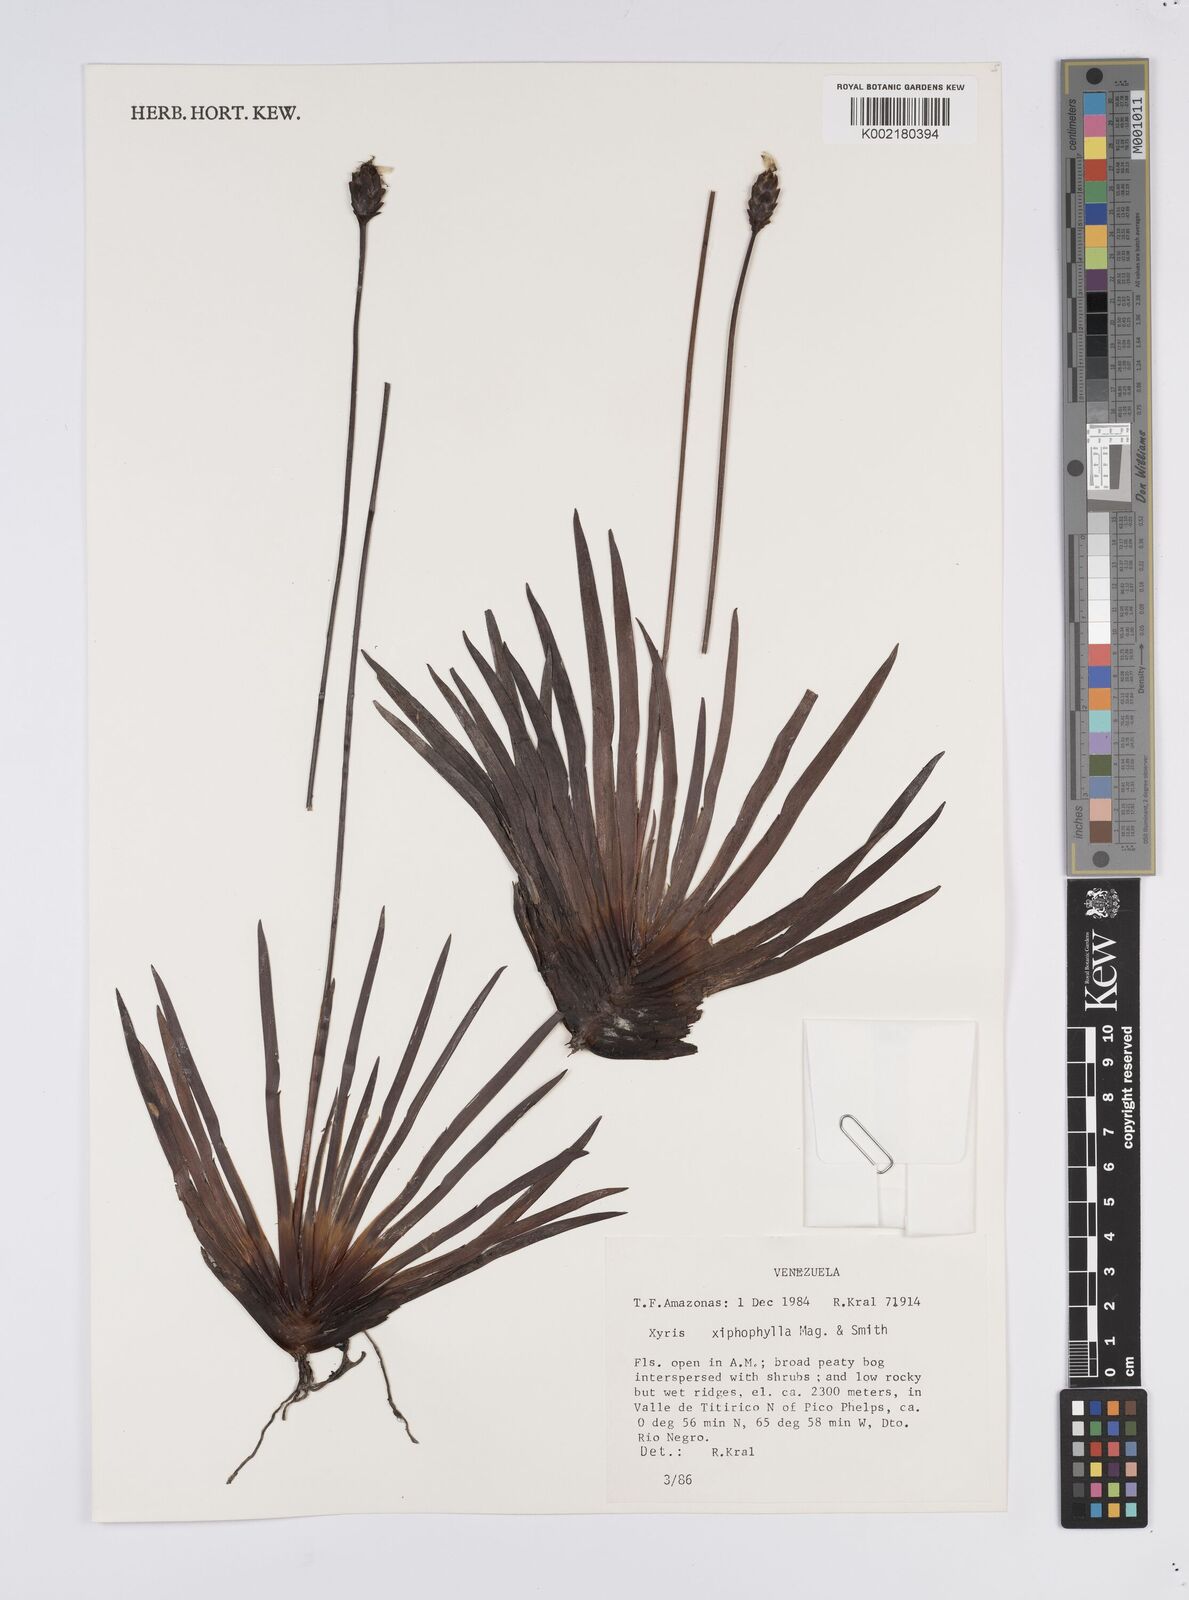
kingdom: Plantae
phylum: Tracheophyta
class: Liliopsida
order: Poales
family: Xyridaceae
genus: Xyris
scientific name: Xyris xiphophylla
